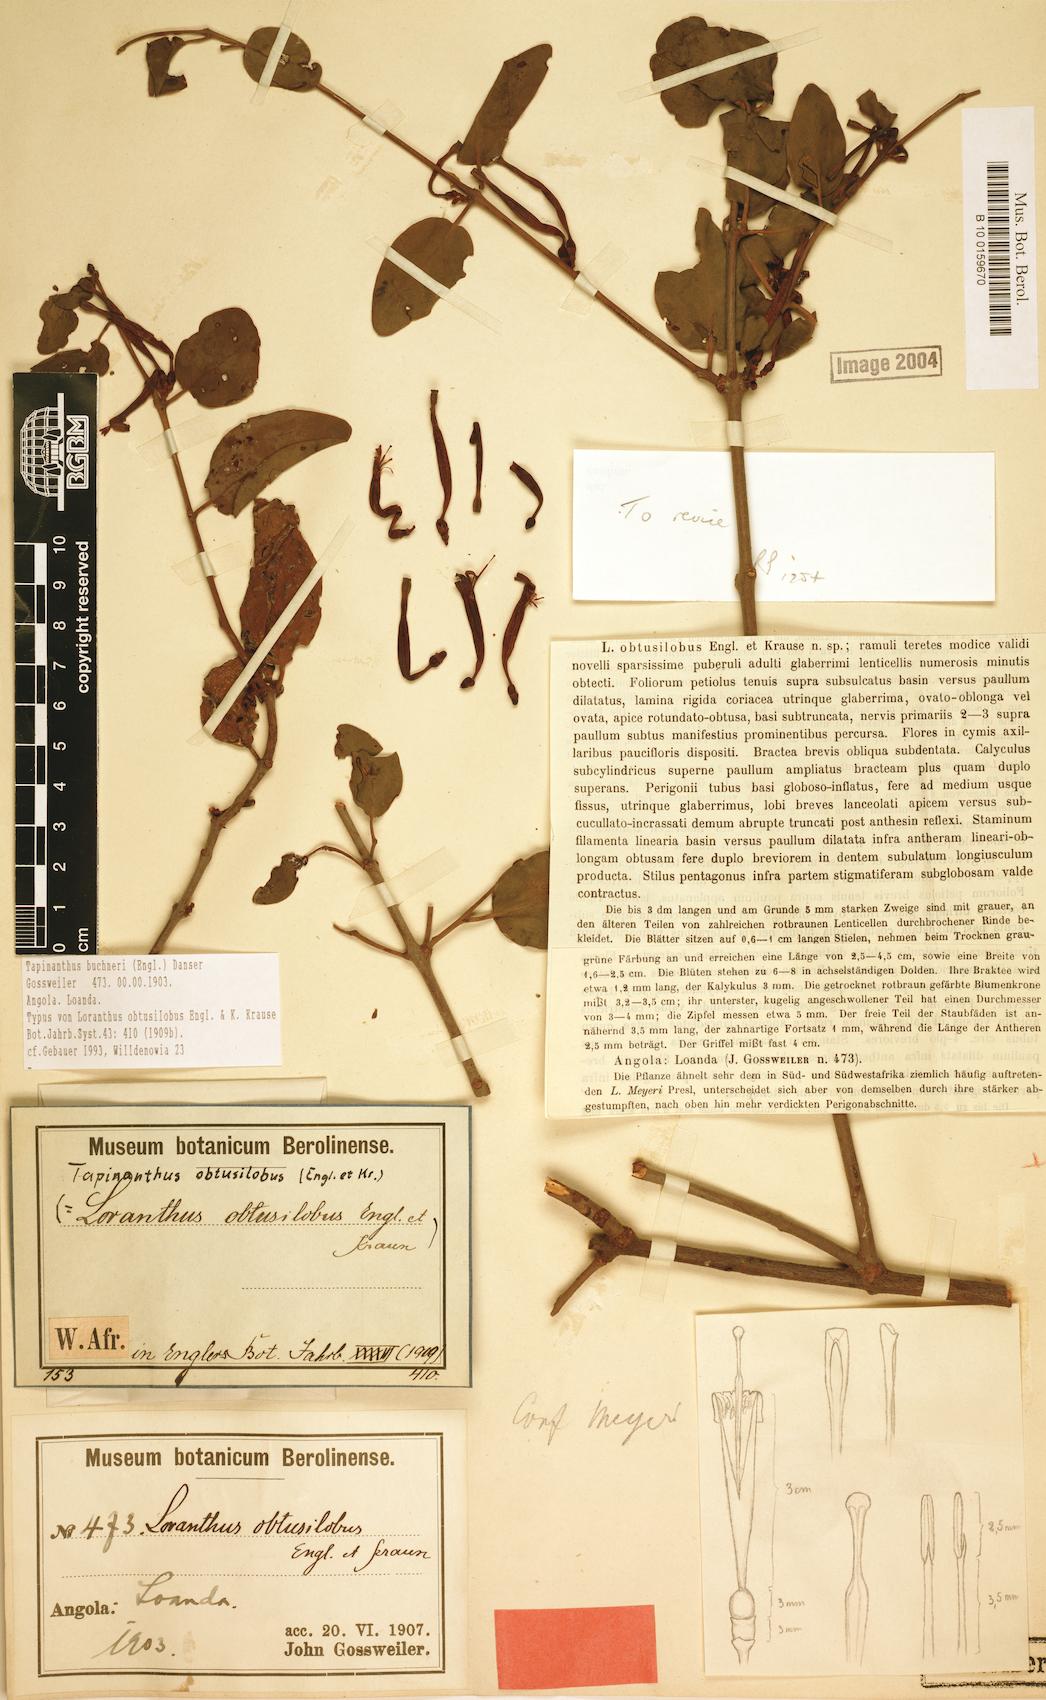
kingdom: Plantae
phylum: Tracheophyta
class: Magnoliopsida
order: Santalales
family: Loranthaceae
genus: Tapinanthus
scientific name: Tapinanthus buchneri
